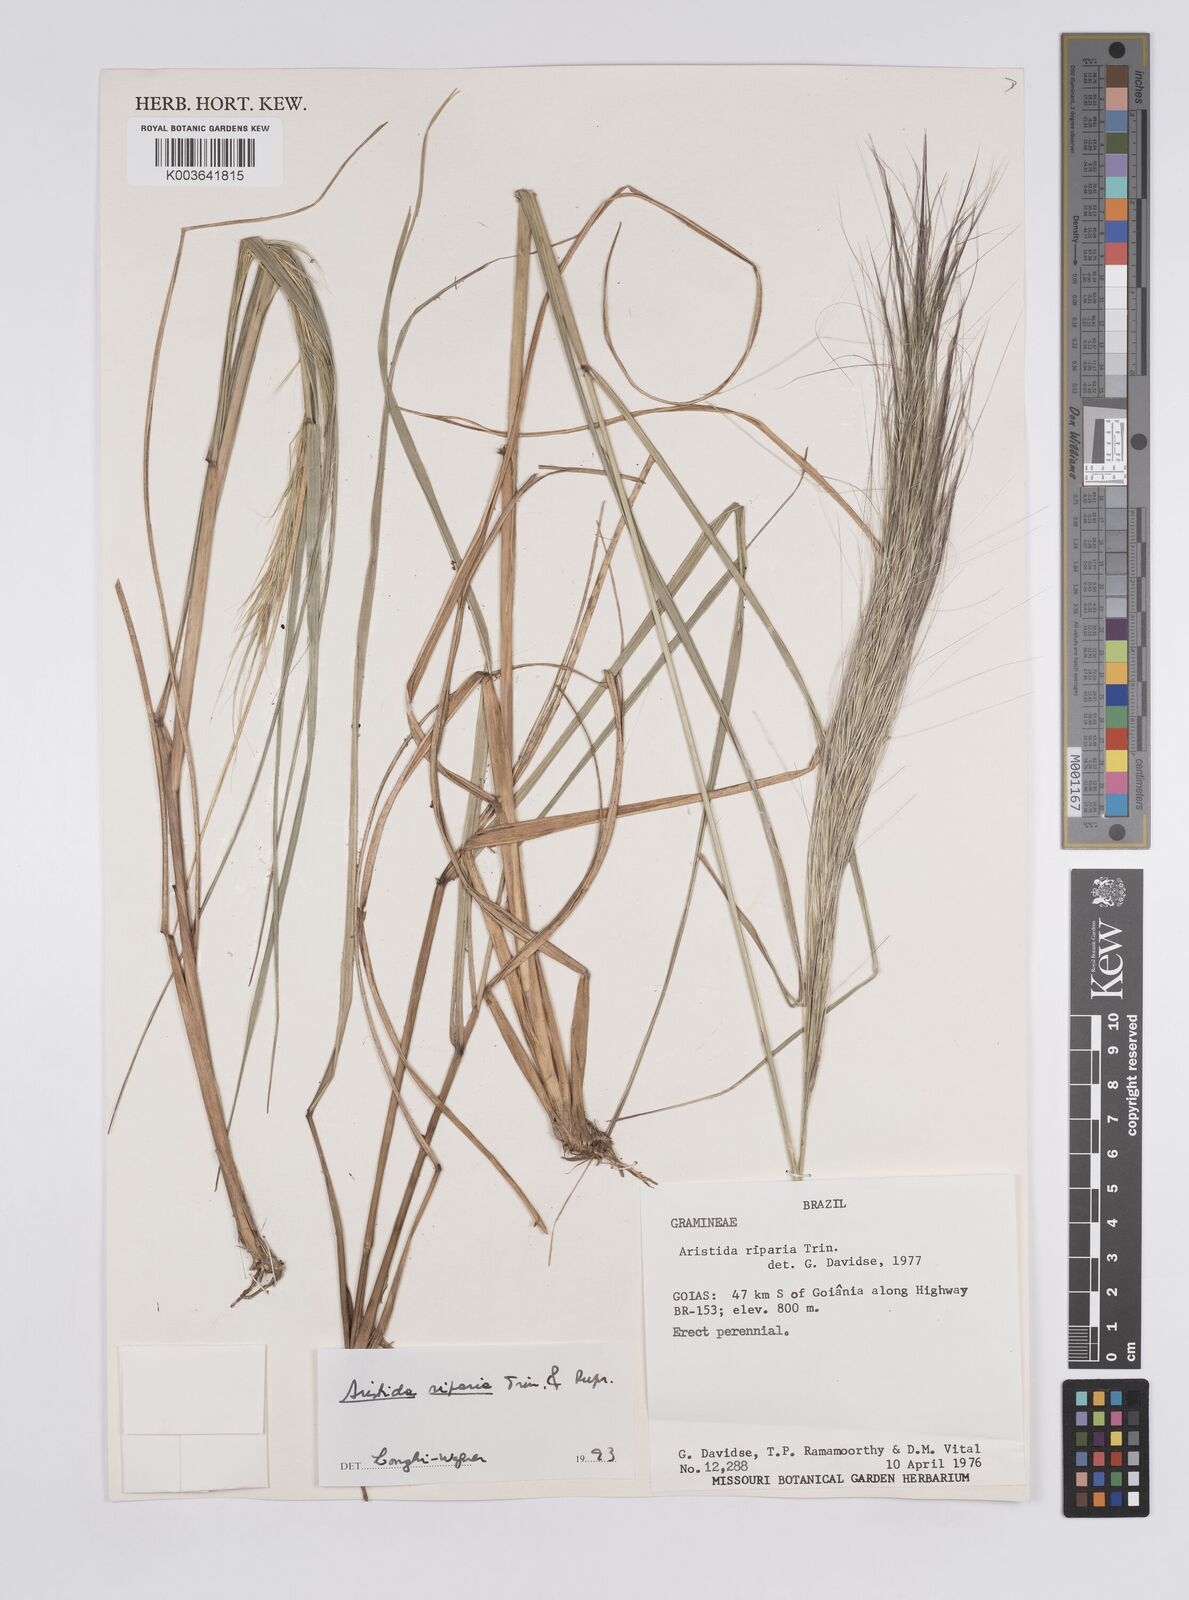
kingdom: Plantae
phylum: Tracheophyta
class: Liliopsida
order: Poales
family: Poaceae
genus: Aristida
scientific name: Aristida riparia
